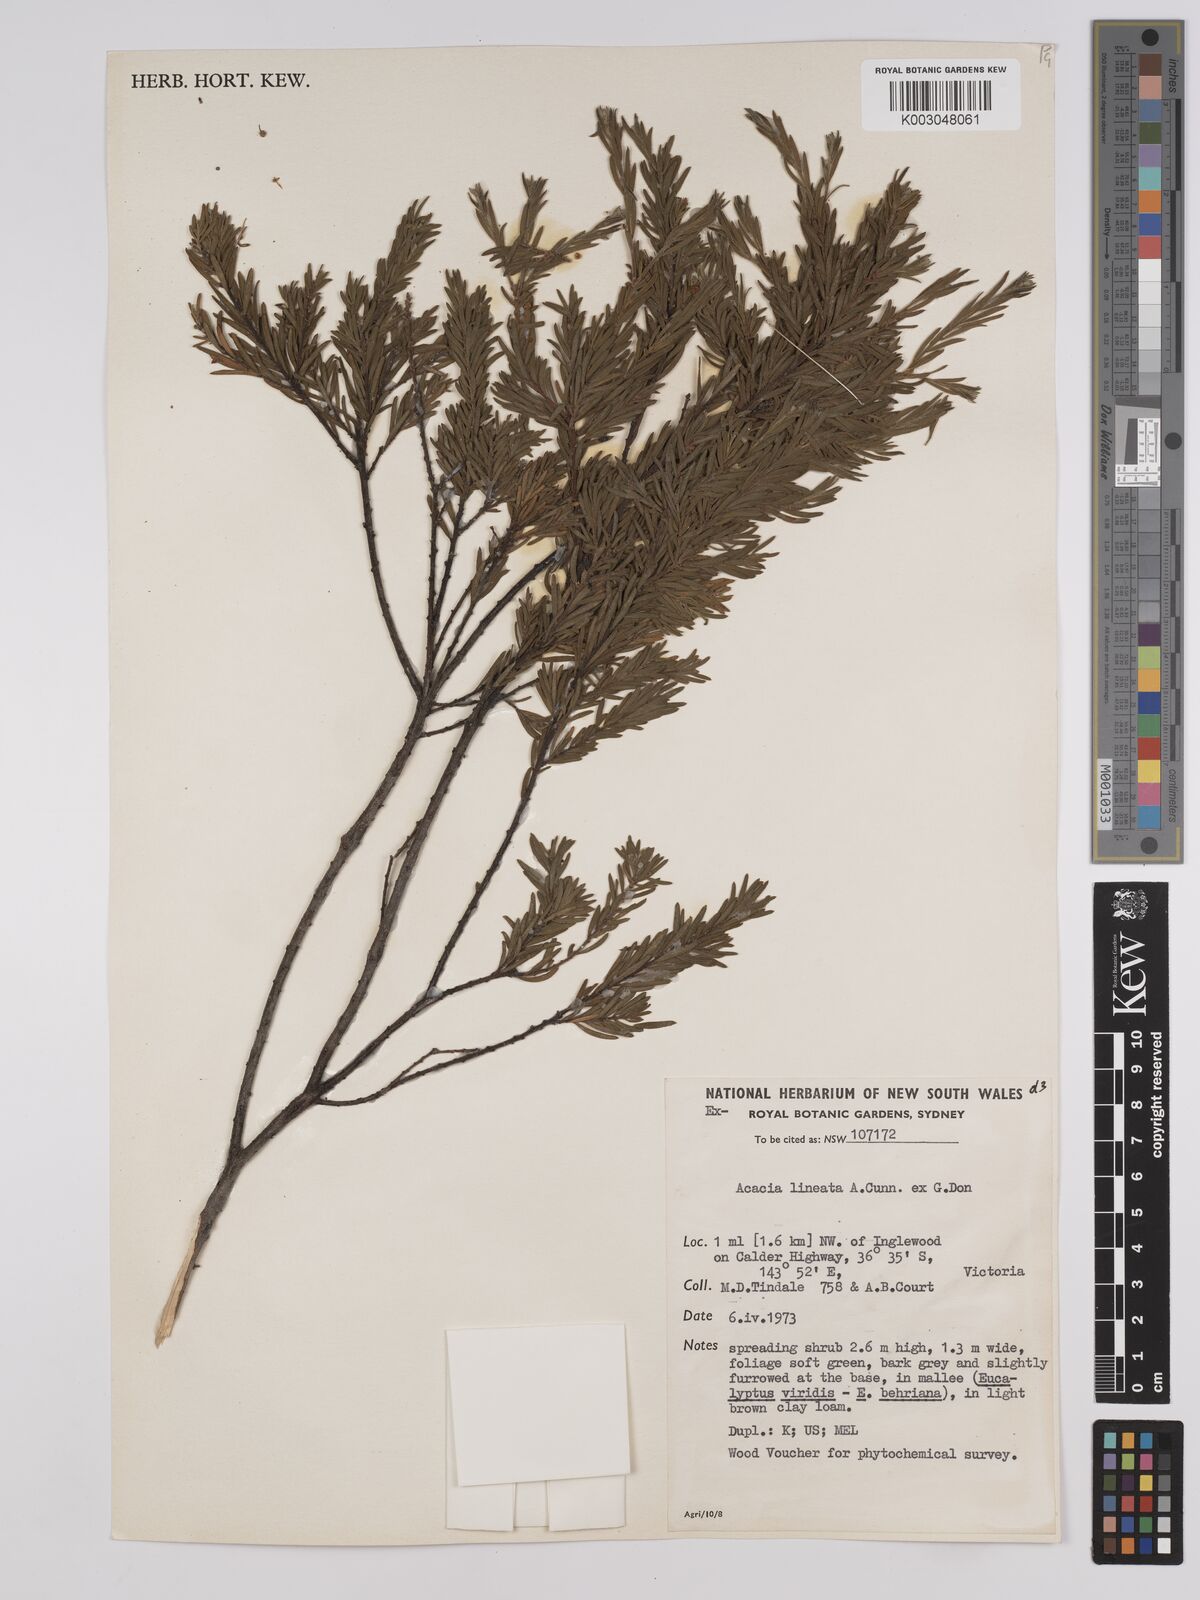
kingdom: Plantae
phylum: Tracheophyta
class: Magnoliopsida
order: Fabales
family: Fabaceae
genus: Acacia
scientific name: Acacia lineata
